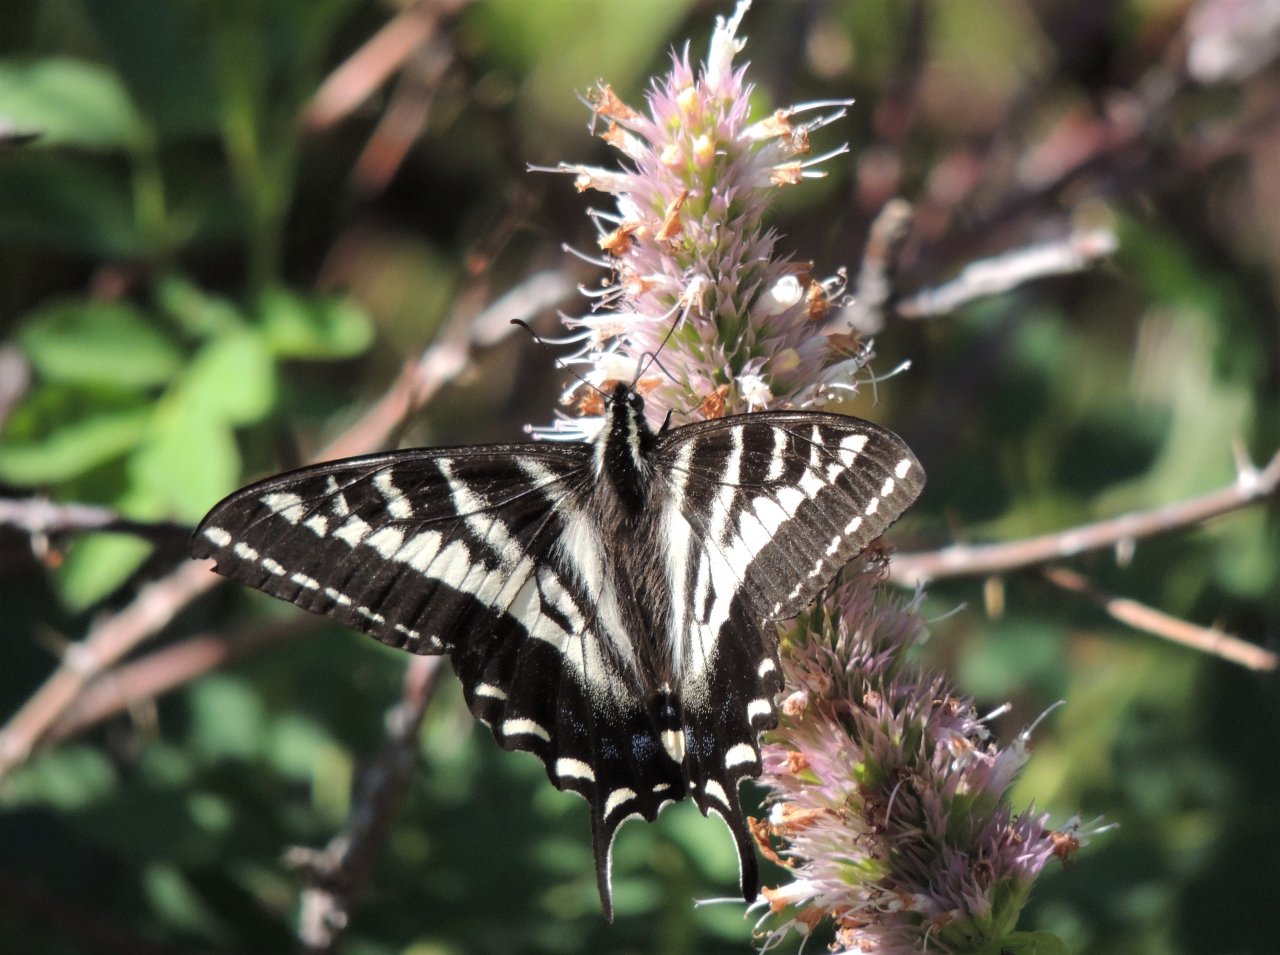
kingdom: Animalia
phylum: Arthropoda
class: Insecta
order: Lepidoptera
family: Papilionidae
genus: Pterourus
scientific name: Pterourus eurymedon
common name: Pale Swallowtail
